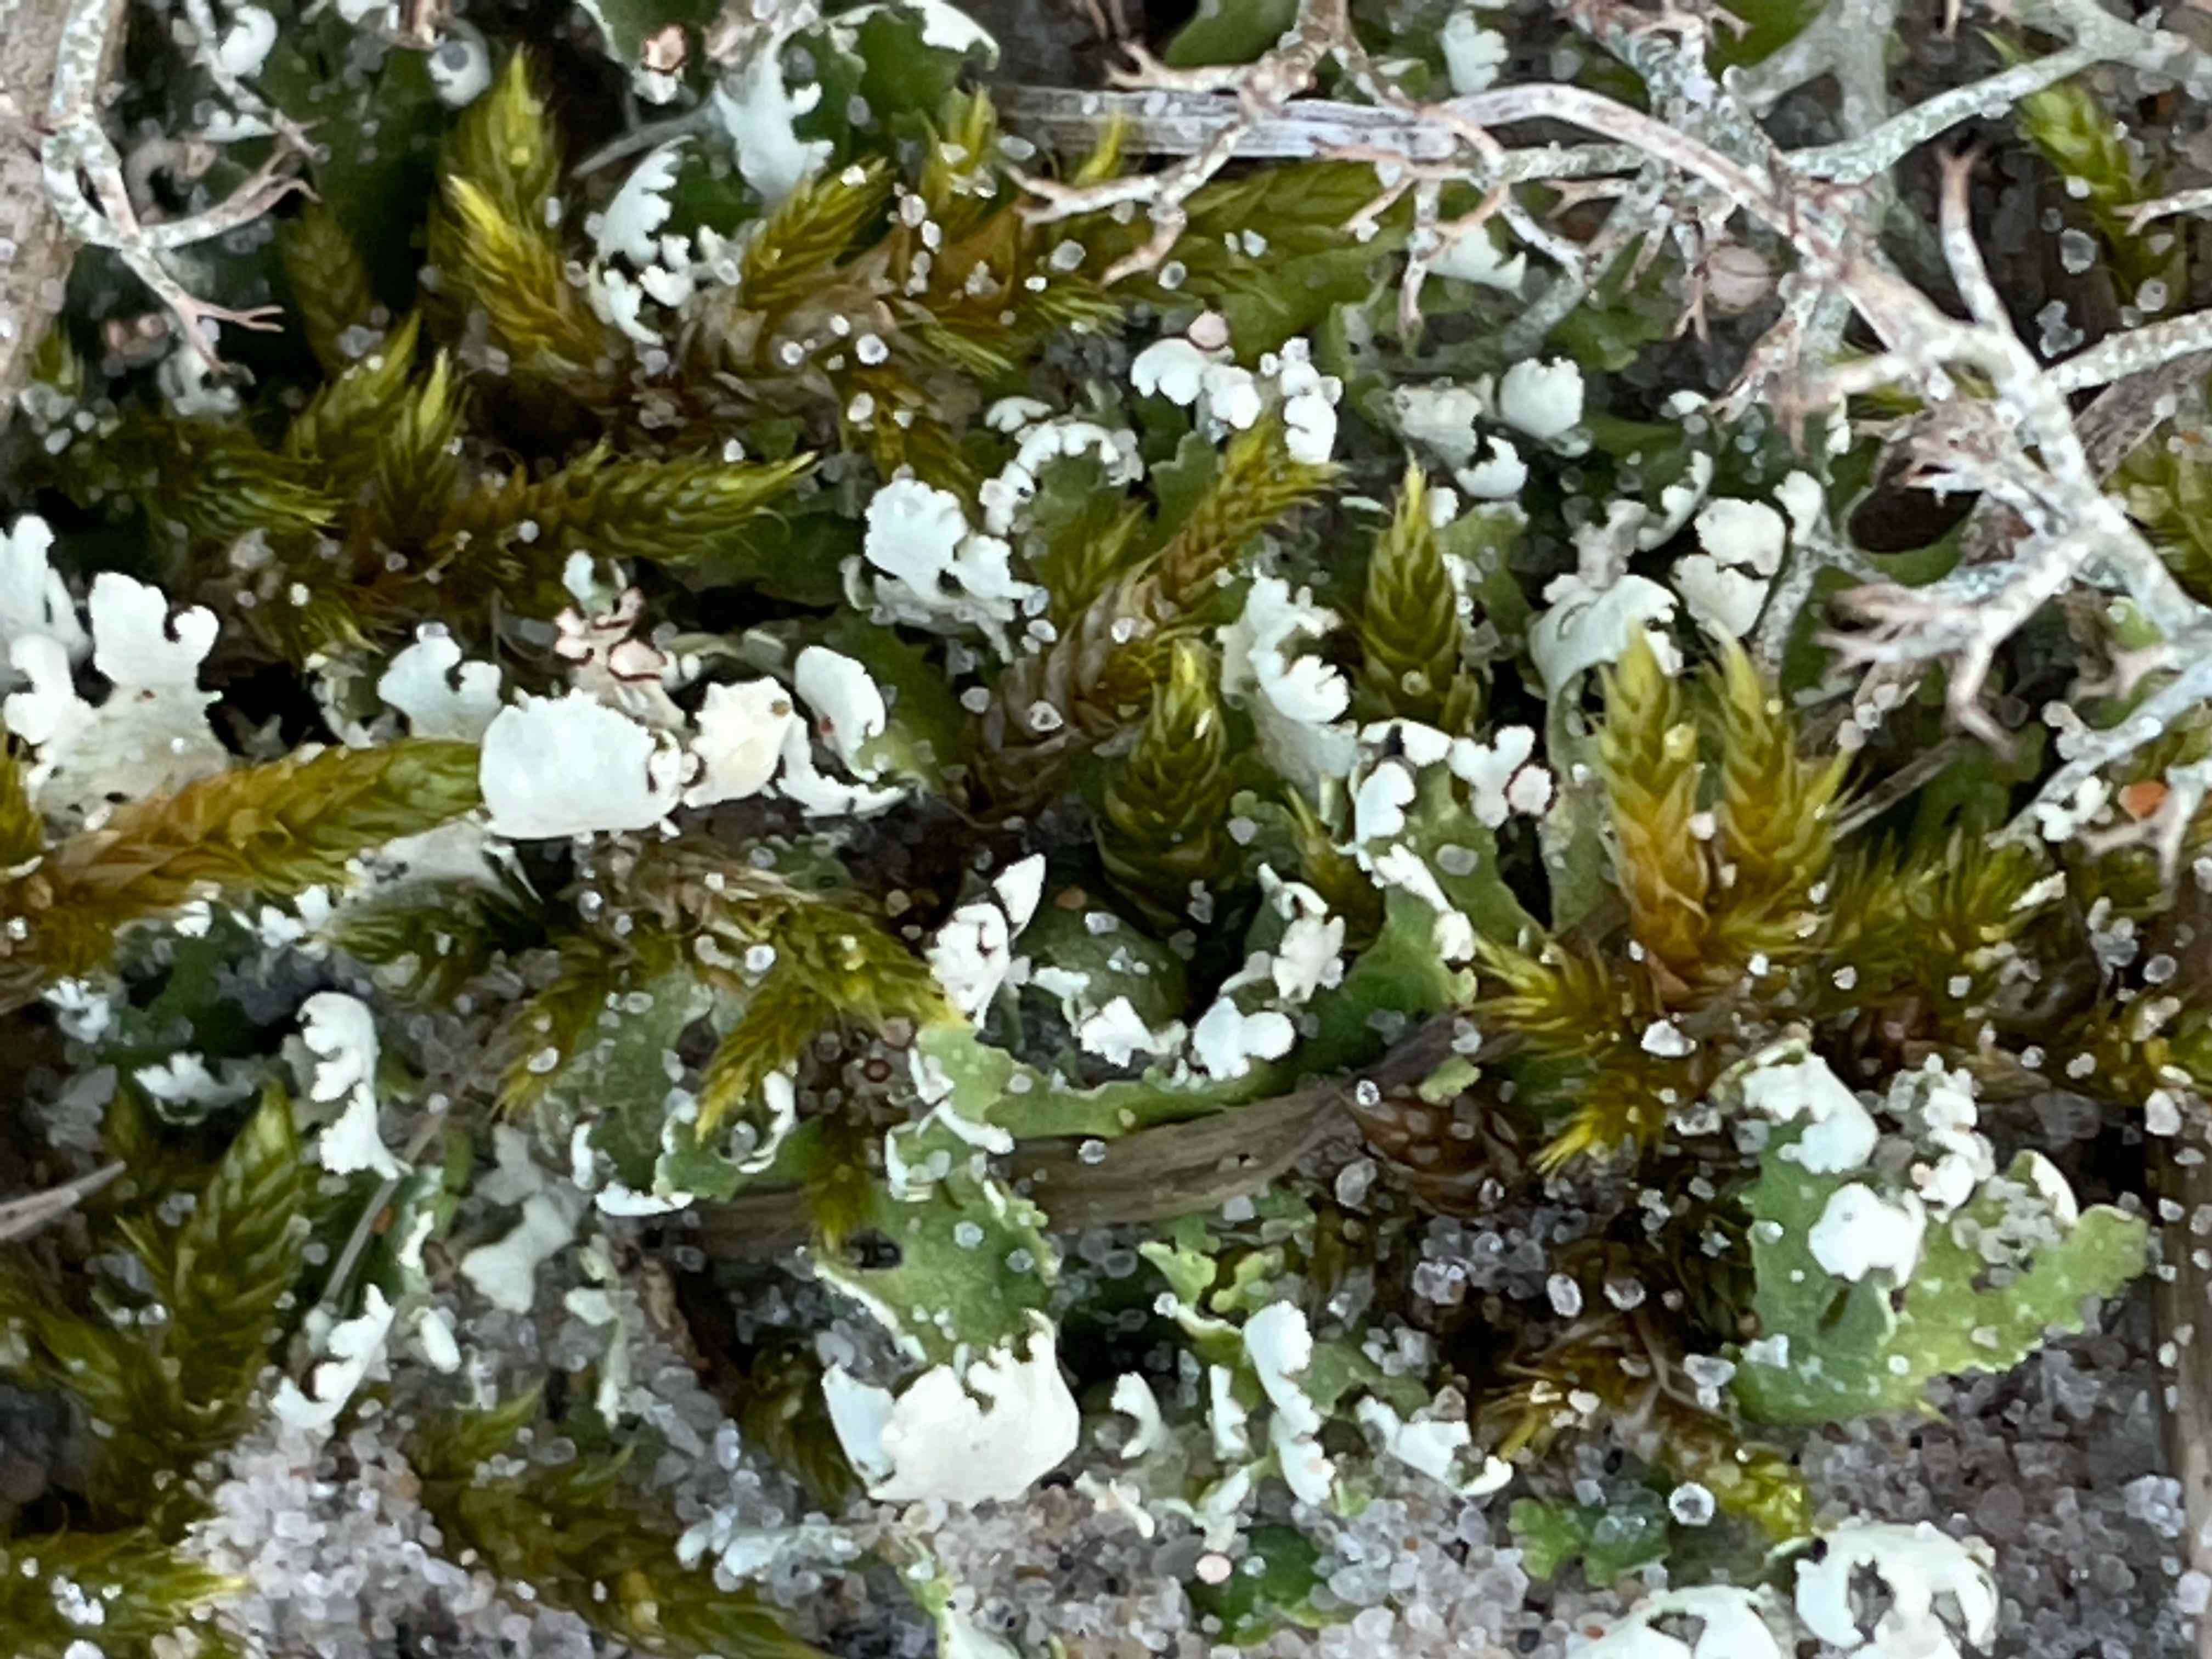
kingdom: Fungi
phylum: Ascomycota
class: Lecanoromycetes
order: Lecanorales
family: Cladoniaceae
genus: Cladonia
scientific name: Cladonia foliacea
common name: fliget bægerlav
